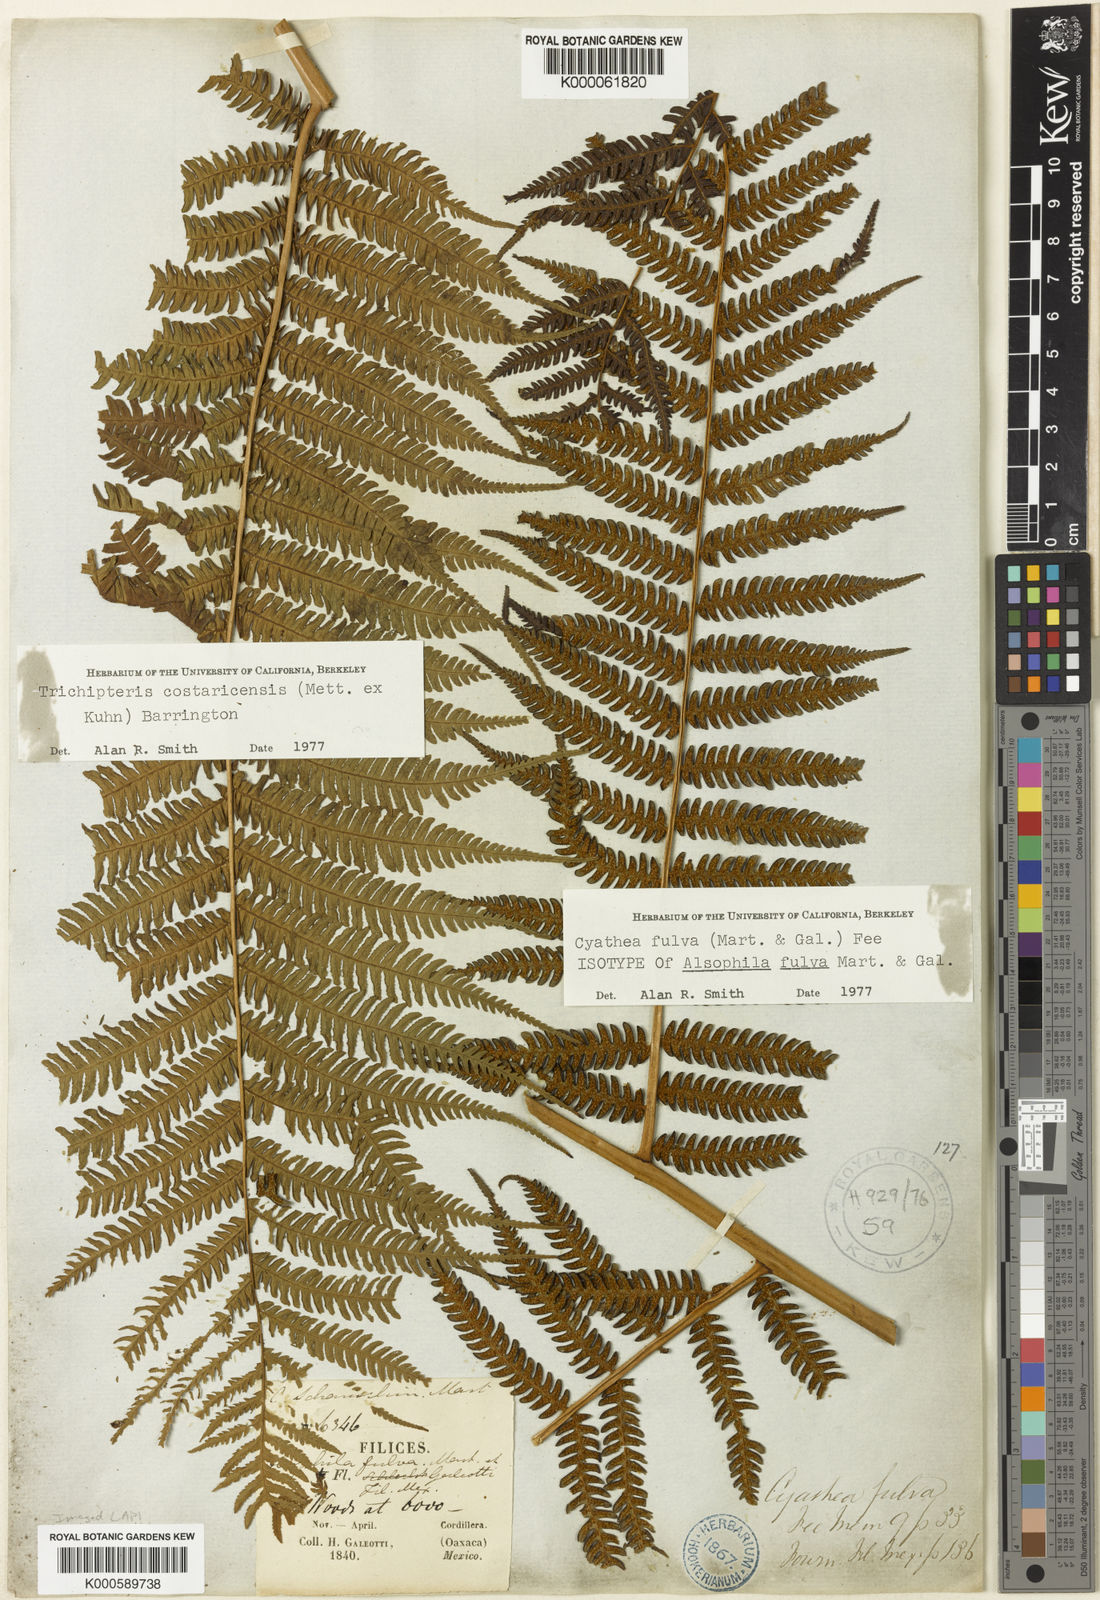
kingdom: Plantae
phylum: Tracheophyta
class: Polypodiopsida
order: Cyatheales
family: Cyatheaceae
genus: Cyathea
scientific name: Cyathea
